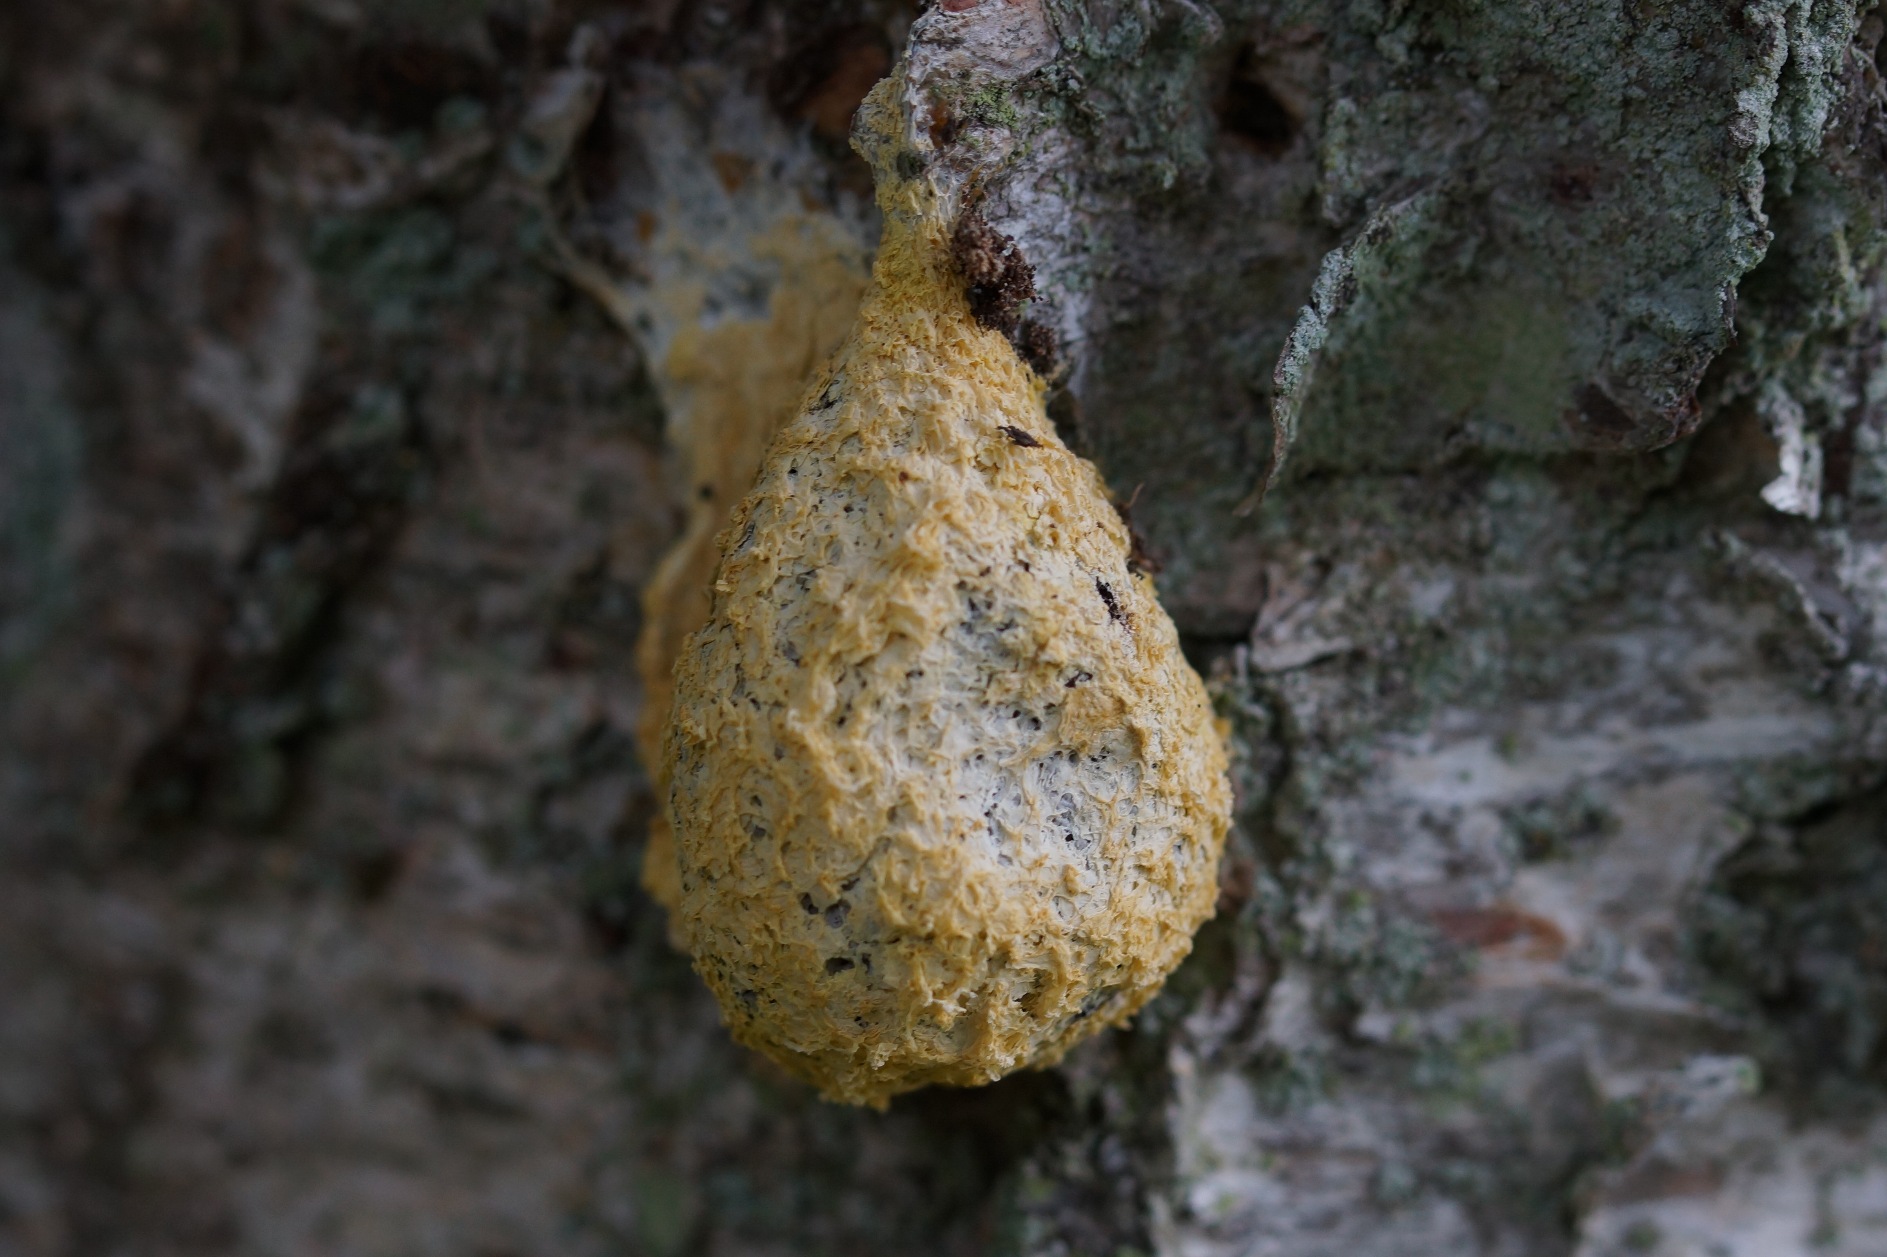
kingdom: Protozoa
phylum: Mycetozoa
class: Myxomycetes
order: Physarales
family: Physaraceae
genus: Fuligo
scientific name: Fuligo septica
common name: Gul troldsmør
